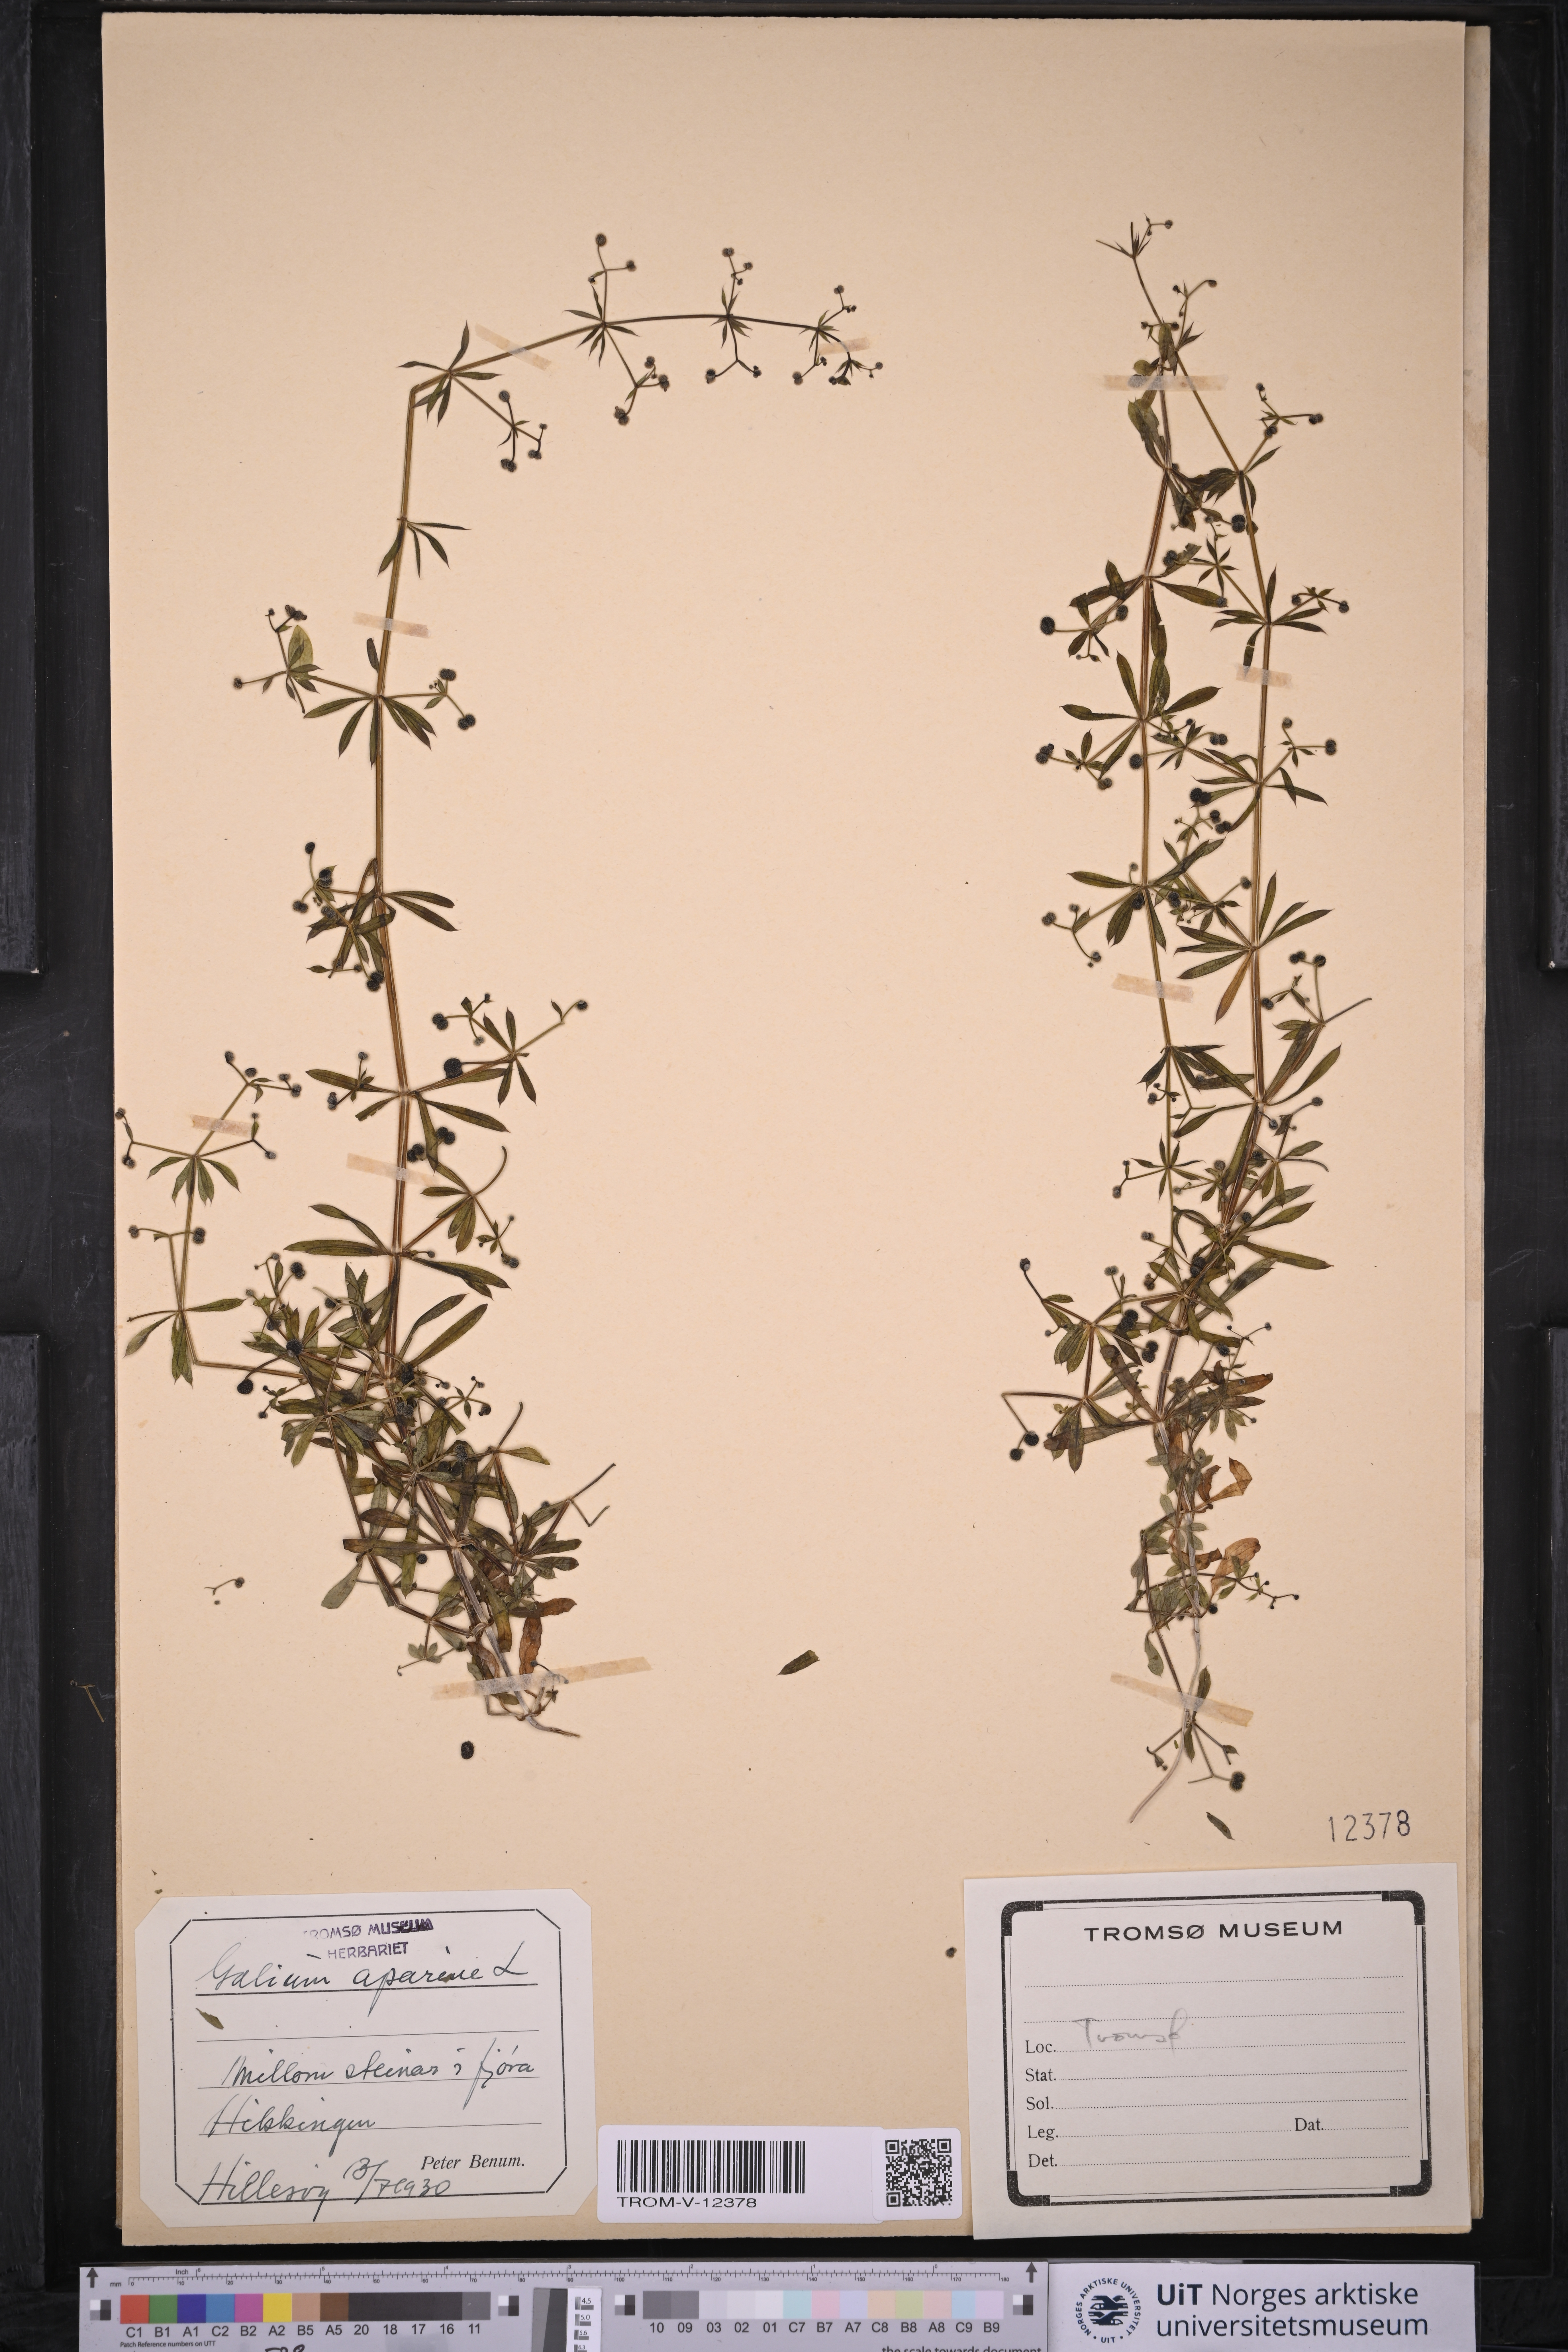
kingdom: Plantae
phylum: Tracheophyta
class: Magnoliopsida
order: Gentianales
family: Rubiaceae
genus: Galium
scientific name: Galium aparine
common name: Cleavers
